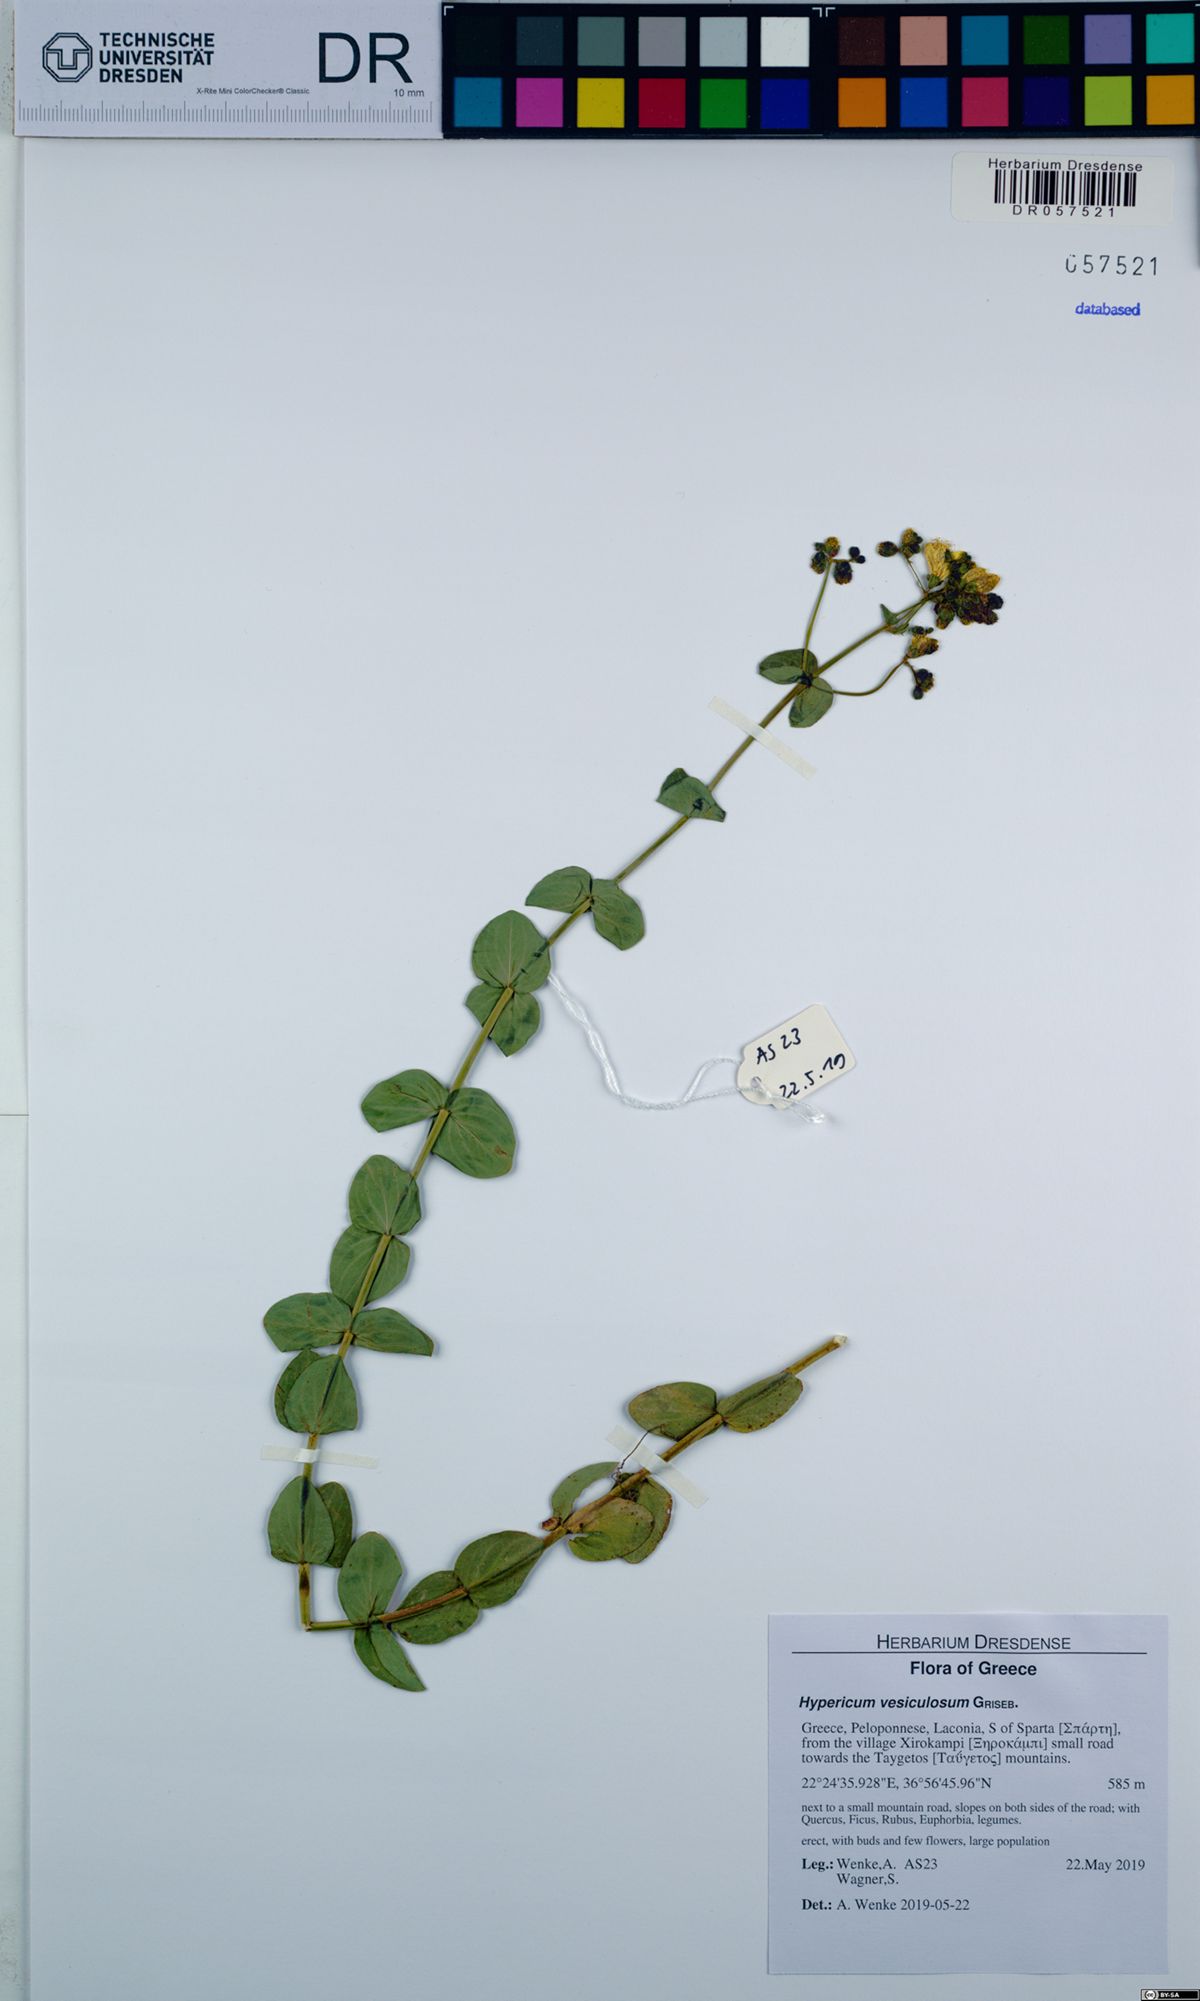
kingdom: Plantae
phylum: Tracheophyta
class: Magnoliopsida
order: Malpighiales
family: Hypericaceae
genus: Hypericum
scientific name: Hypericum vesiculosum
